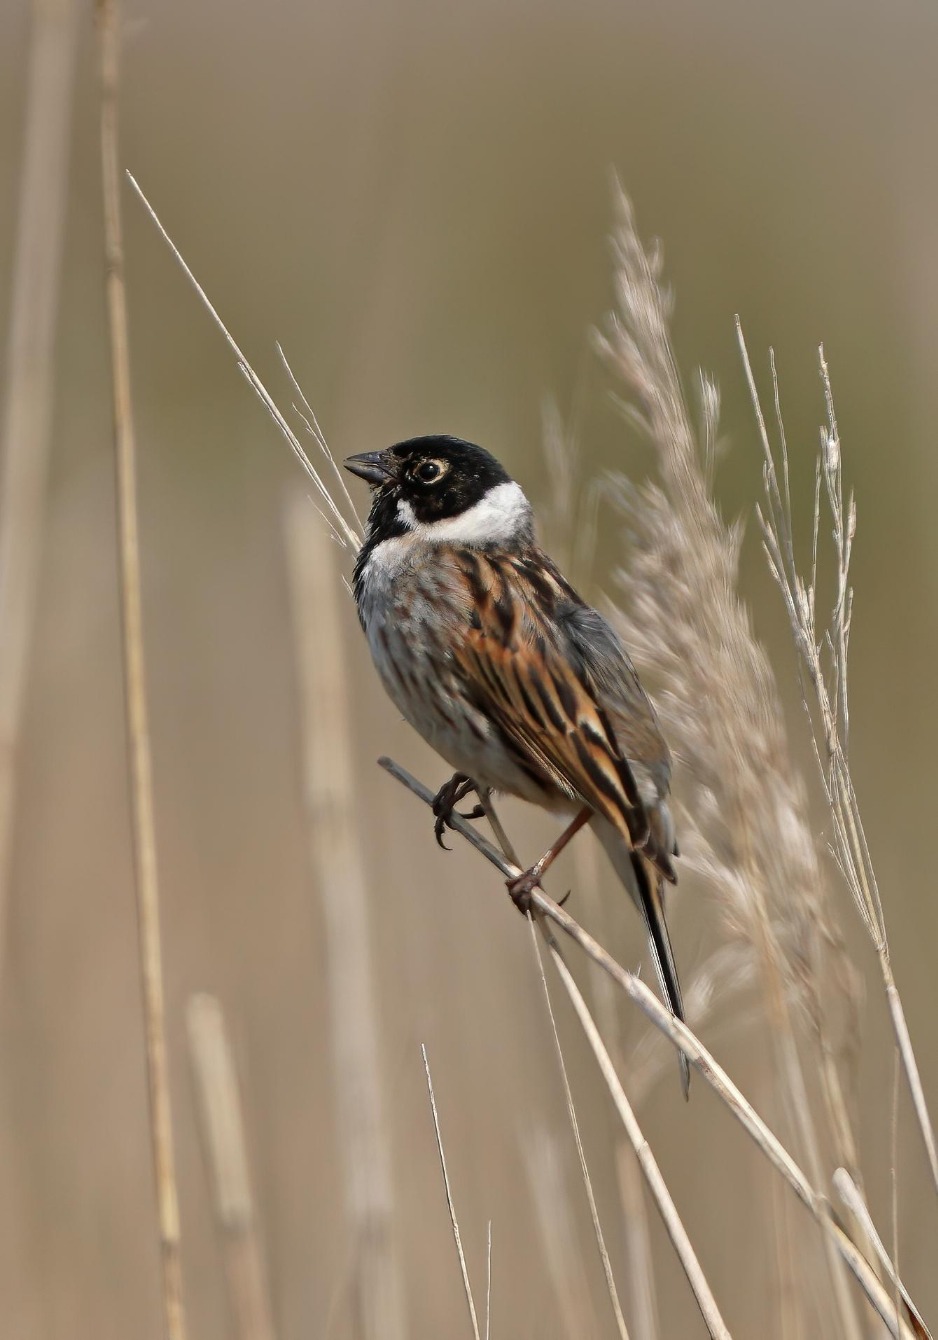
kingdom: Animalia
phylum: Chordata
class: Aves
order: Passeriformes
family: Emberizidae
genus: Emberiza
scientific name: Emberiza schoeniclus
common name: Rørspurv
